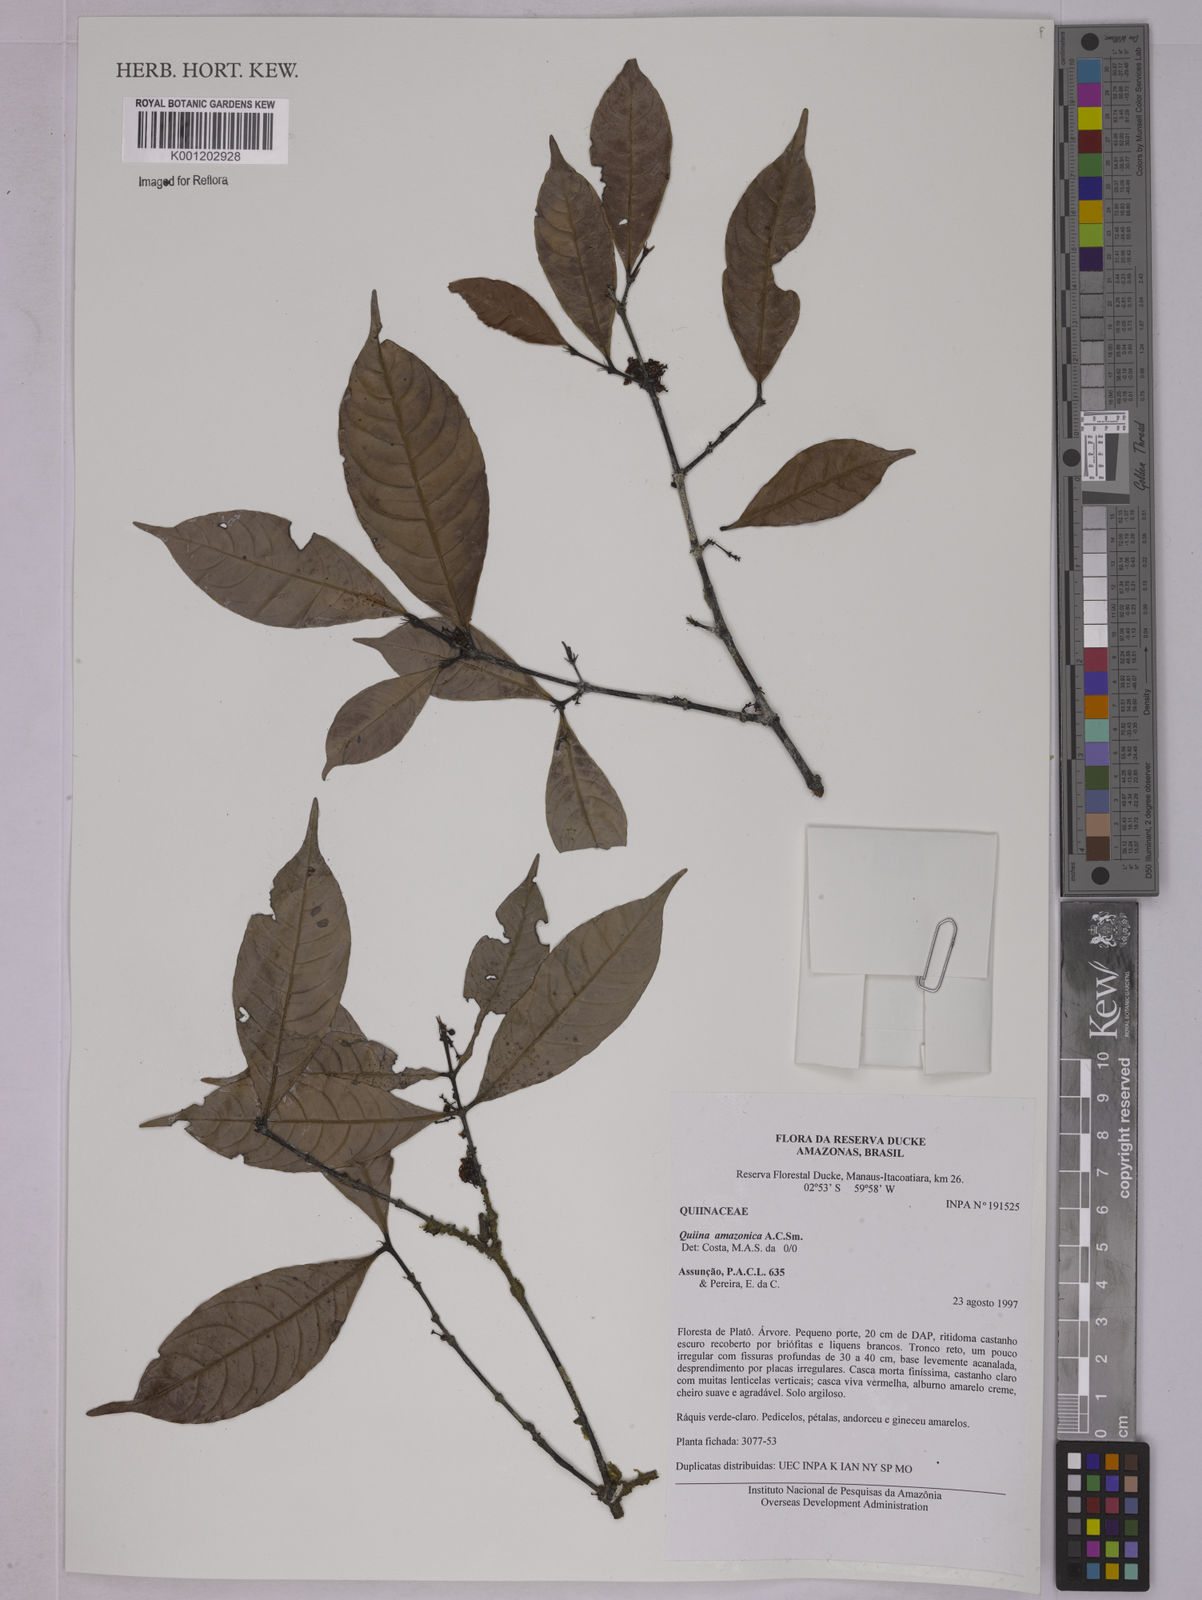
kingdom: Plantae
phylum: Tracheophyta
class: Magnoliopsida
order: Malpighiales
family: Quiinaceae
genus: Quiina
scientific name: Quiina amazonica
